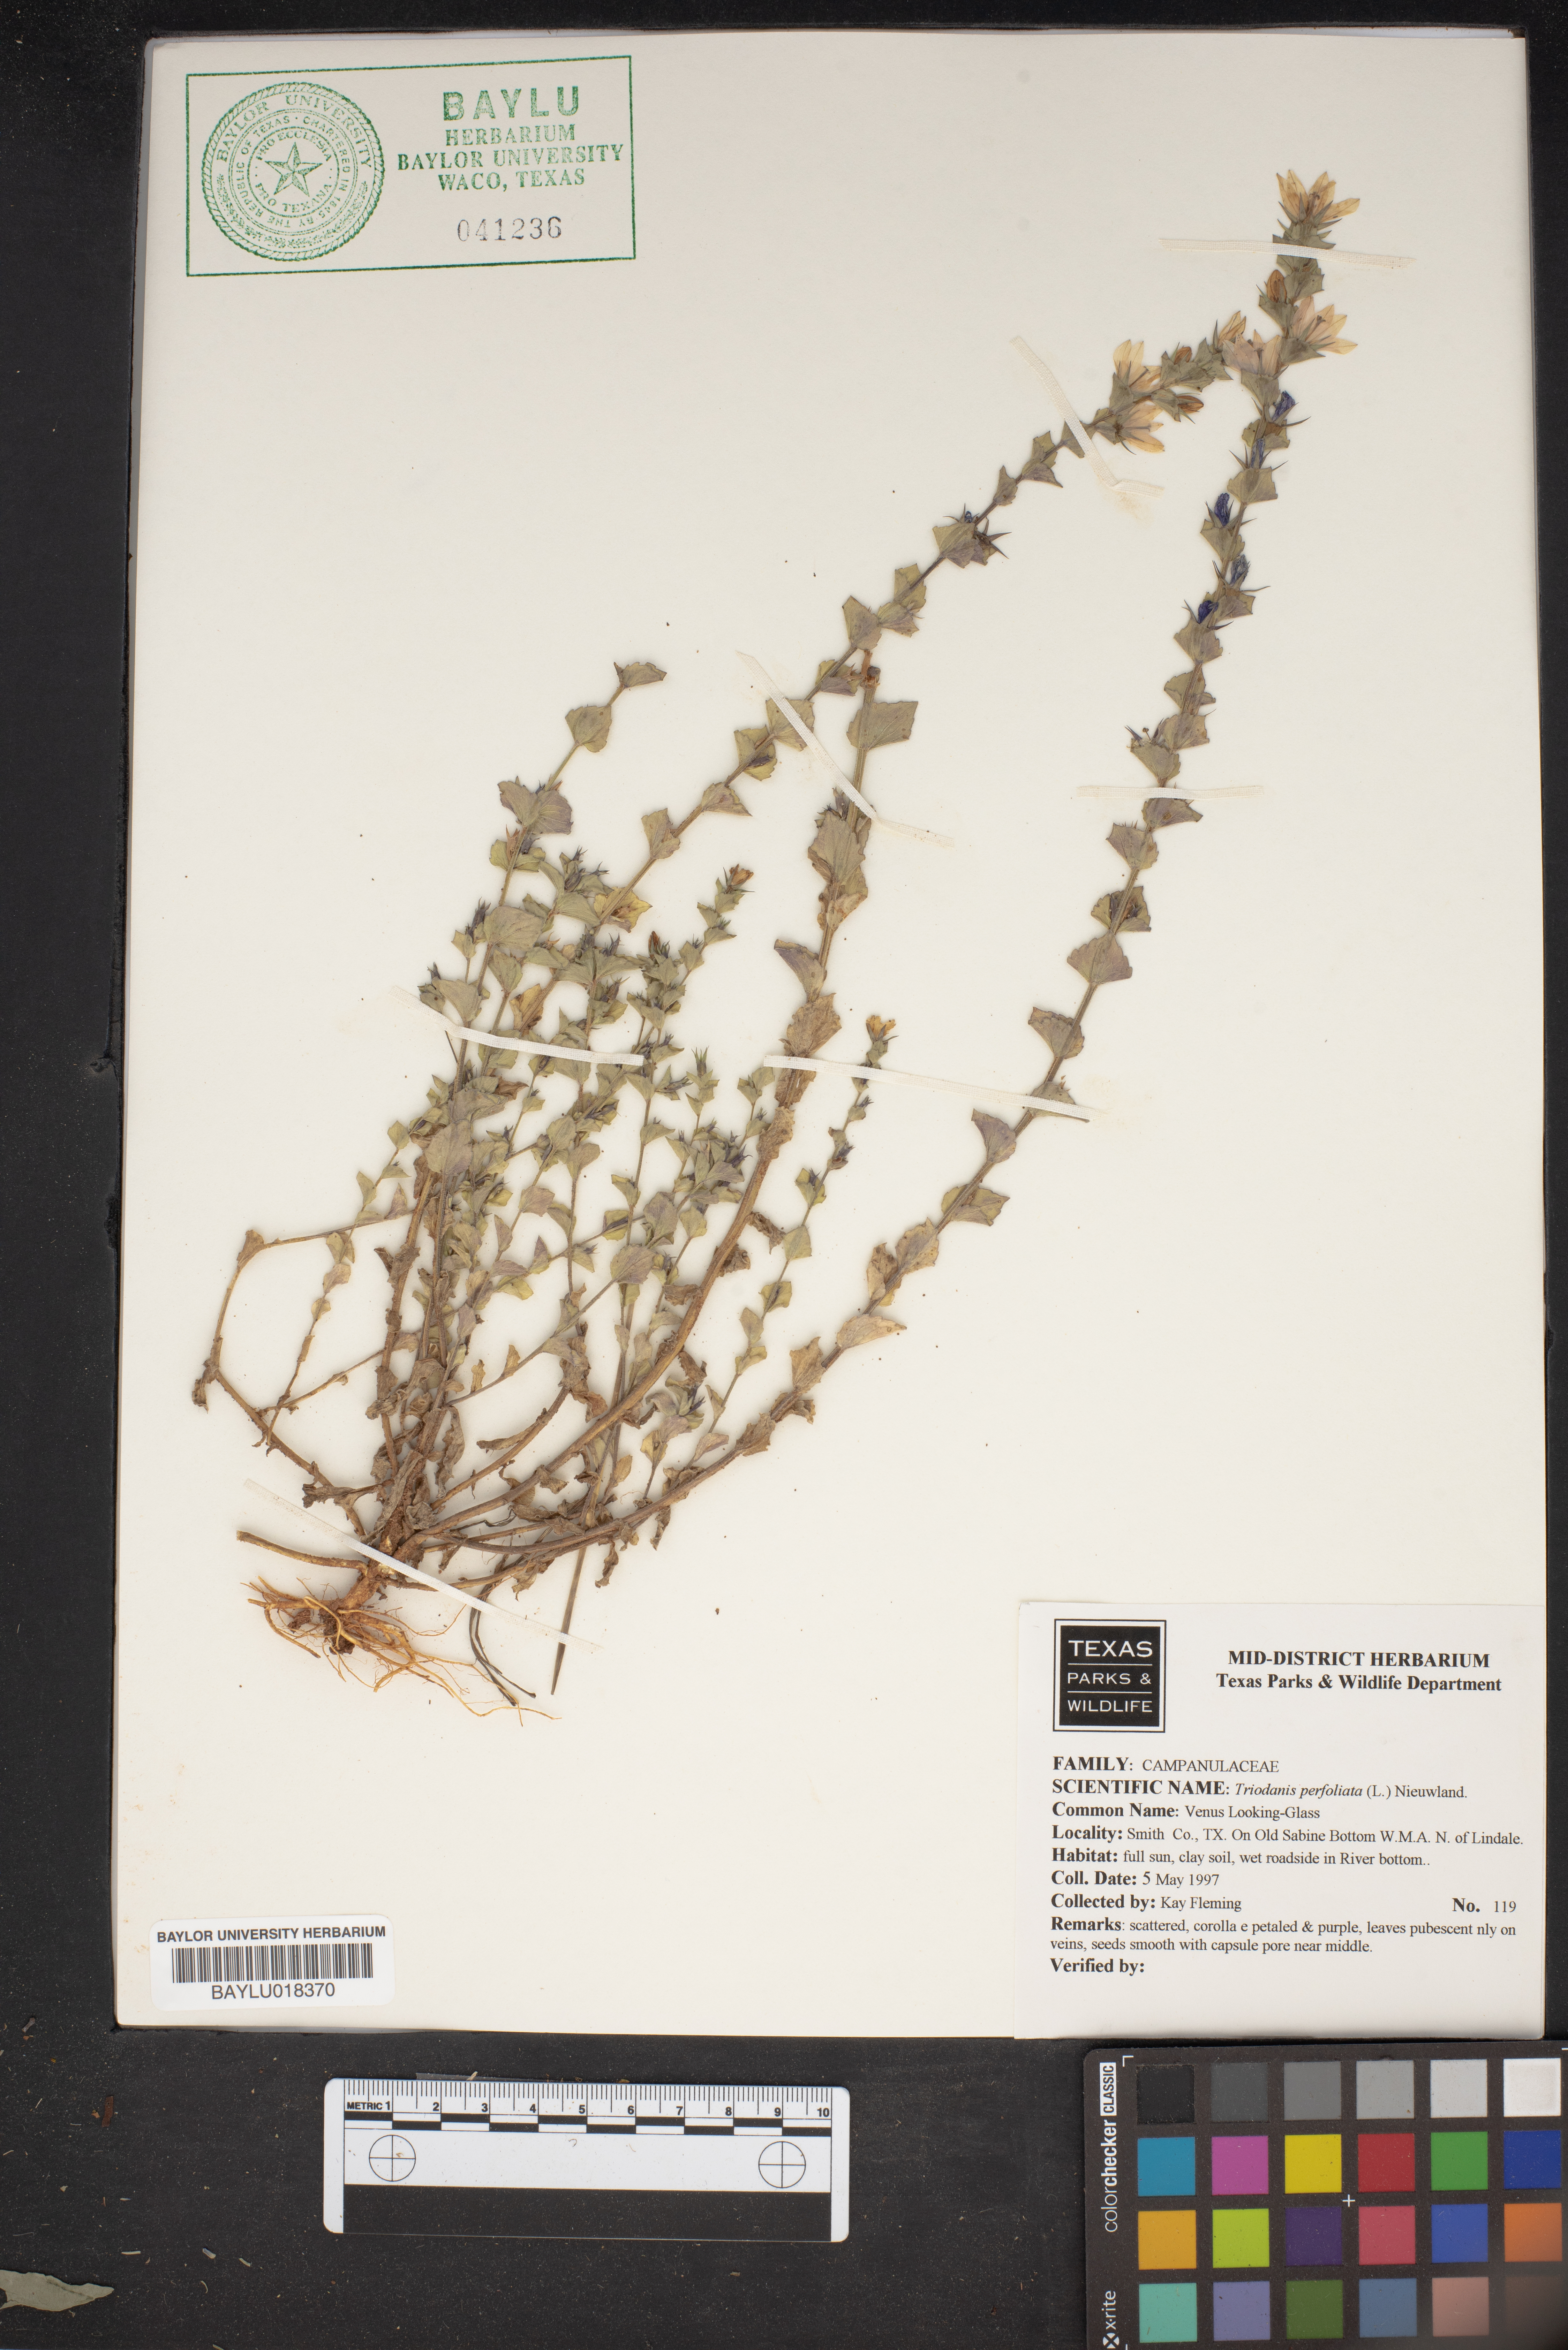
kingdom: Plantae
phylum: Tracheophyta
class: Magnoliopsida
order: Asterales
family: Campanulaceae
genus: Triodanis
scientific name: Triodanis perfoliata
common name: Clasping venus' looking-glass
